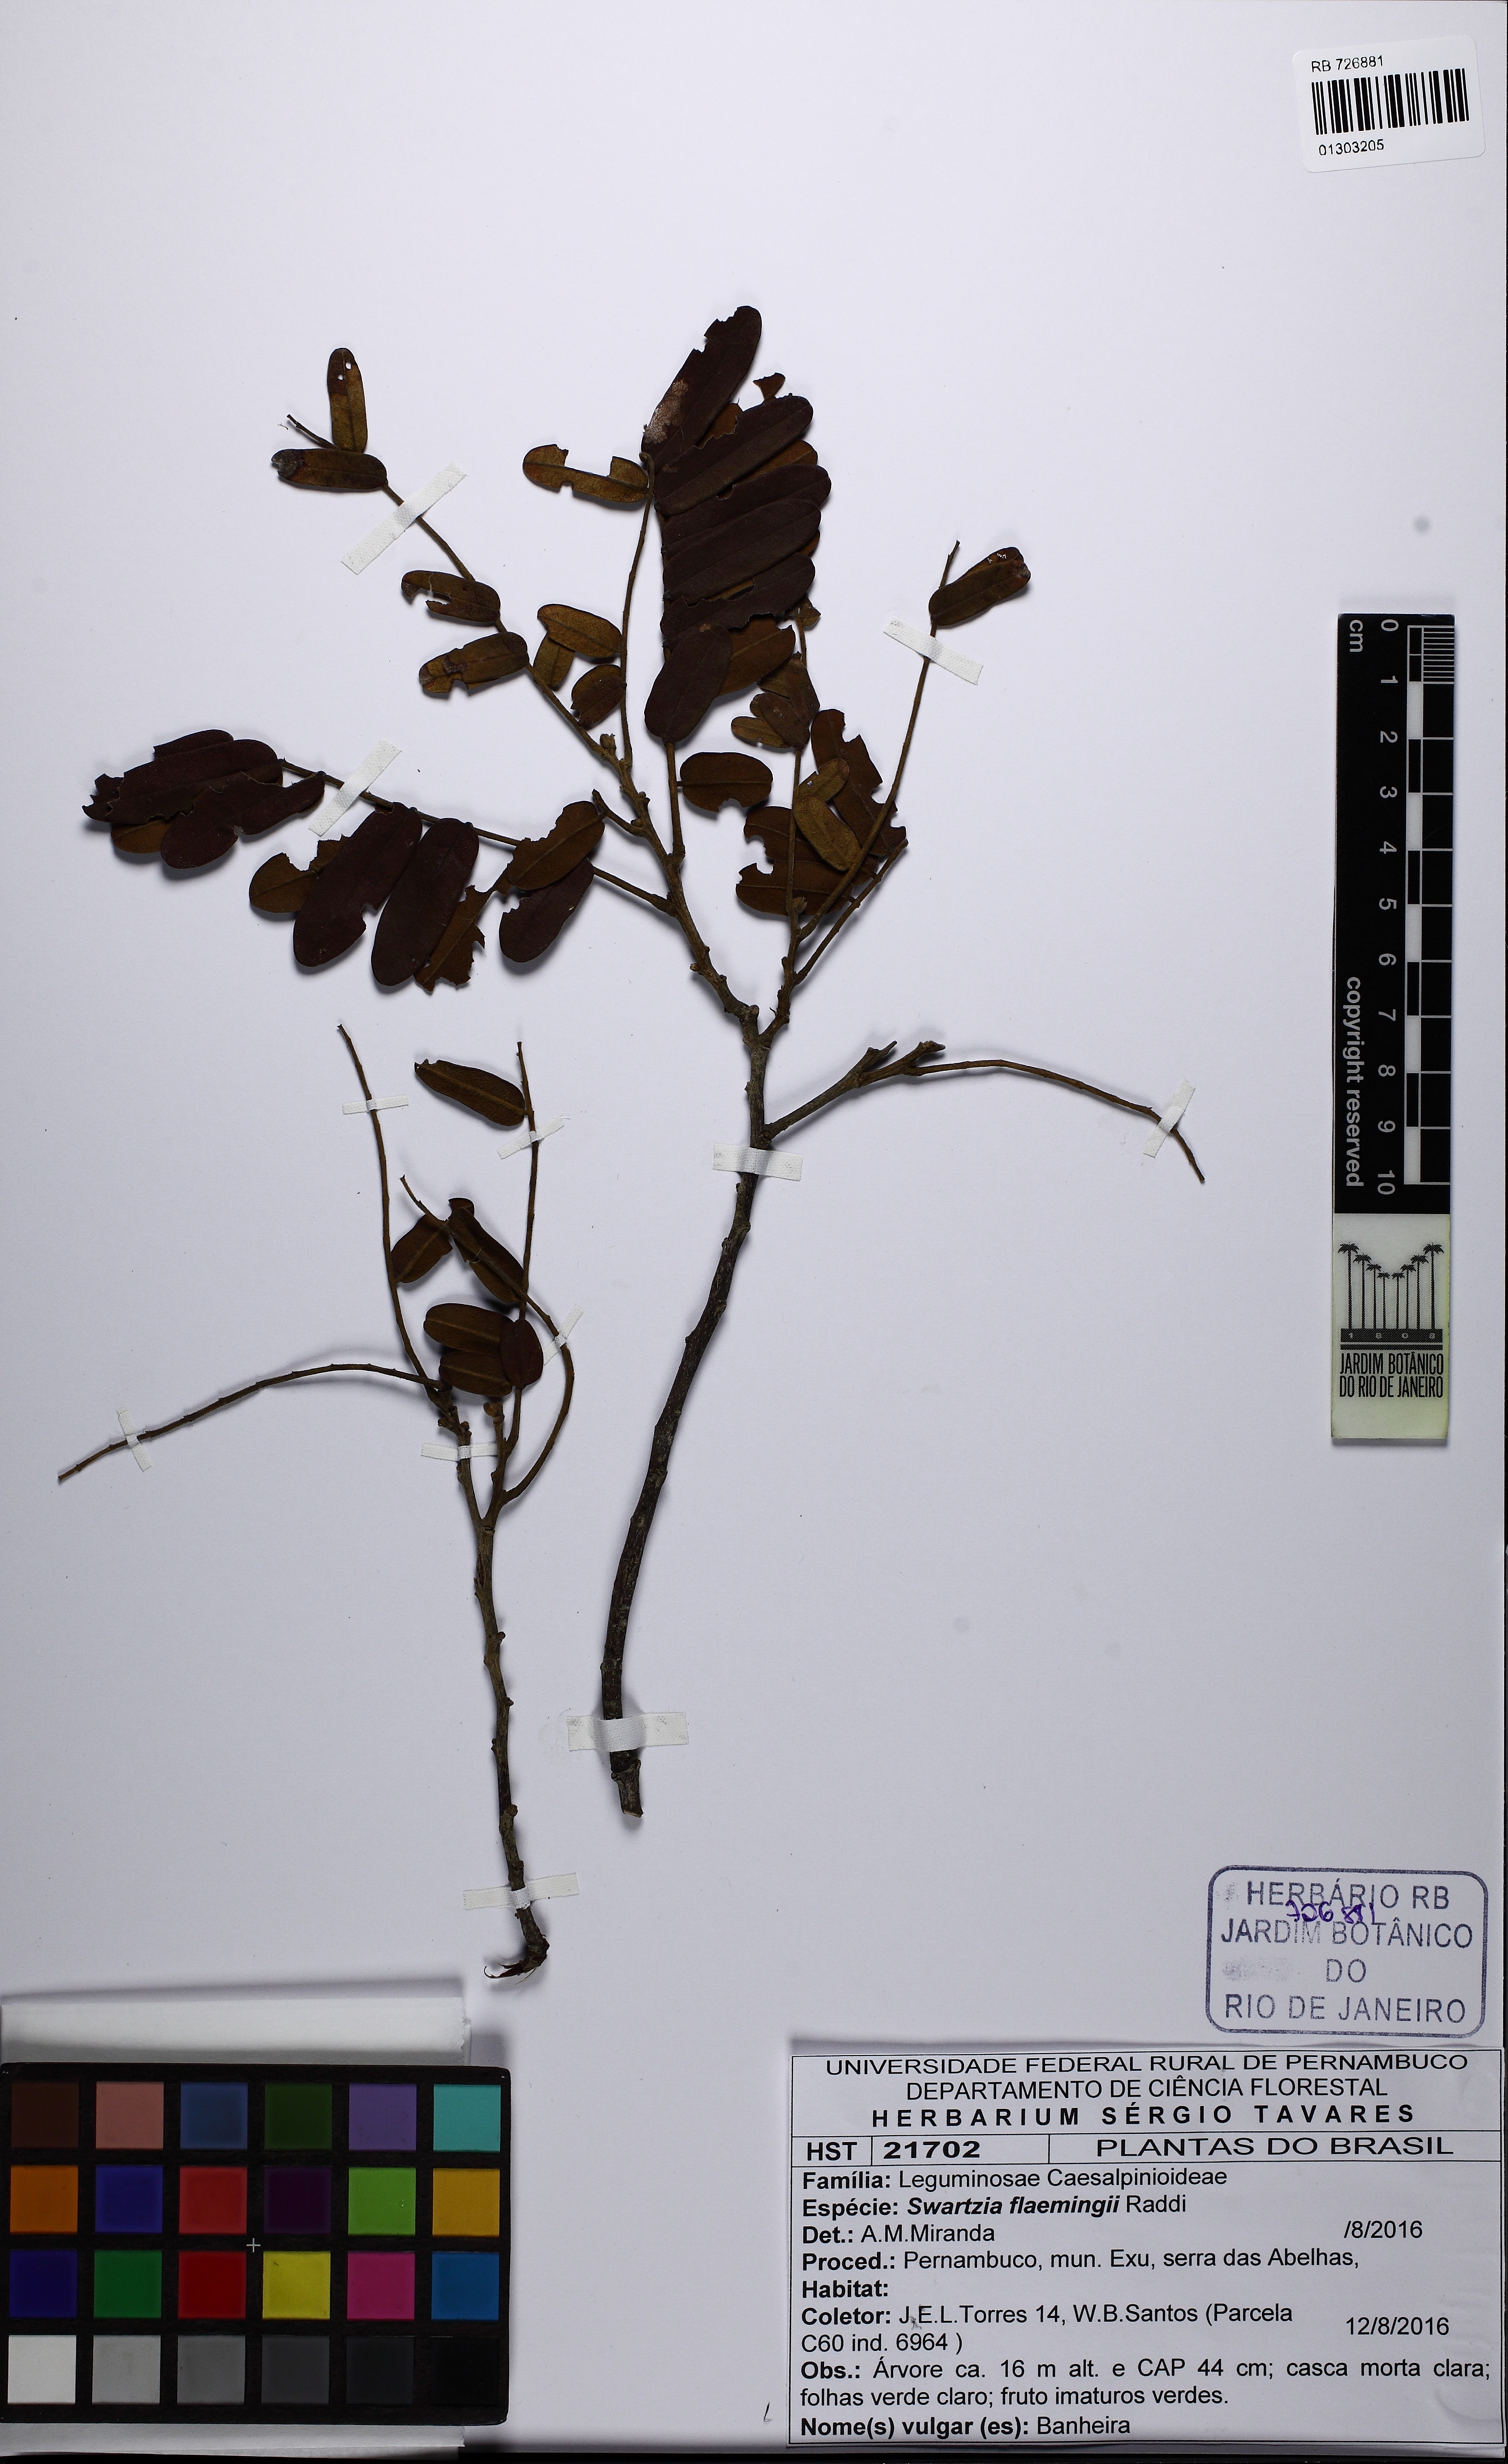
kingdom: Plantae
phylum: Tracheophyta
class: Magnoliopsida
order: Fabales
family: Fabaceae
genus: Swartzia
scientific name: Swartzia flaemingii
